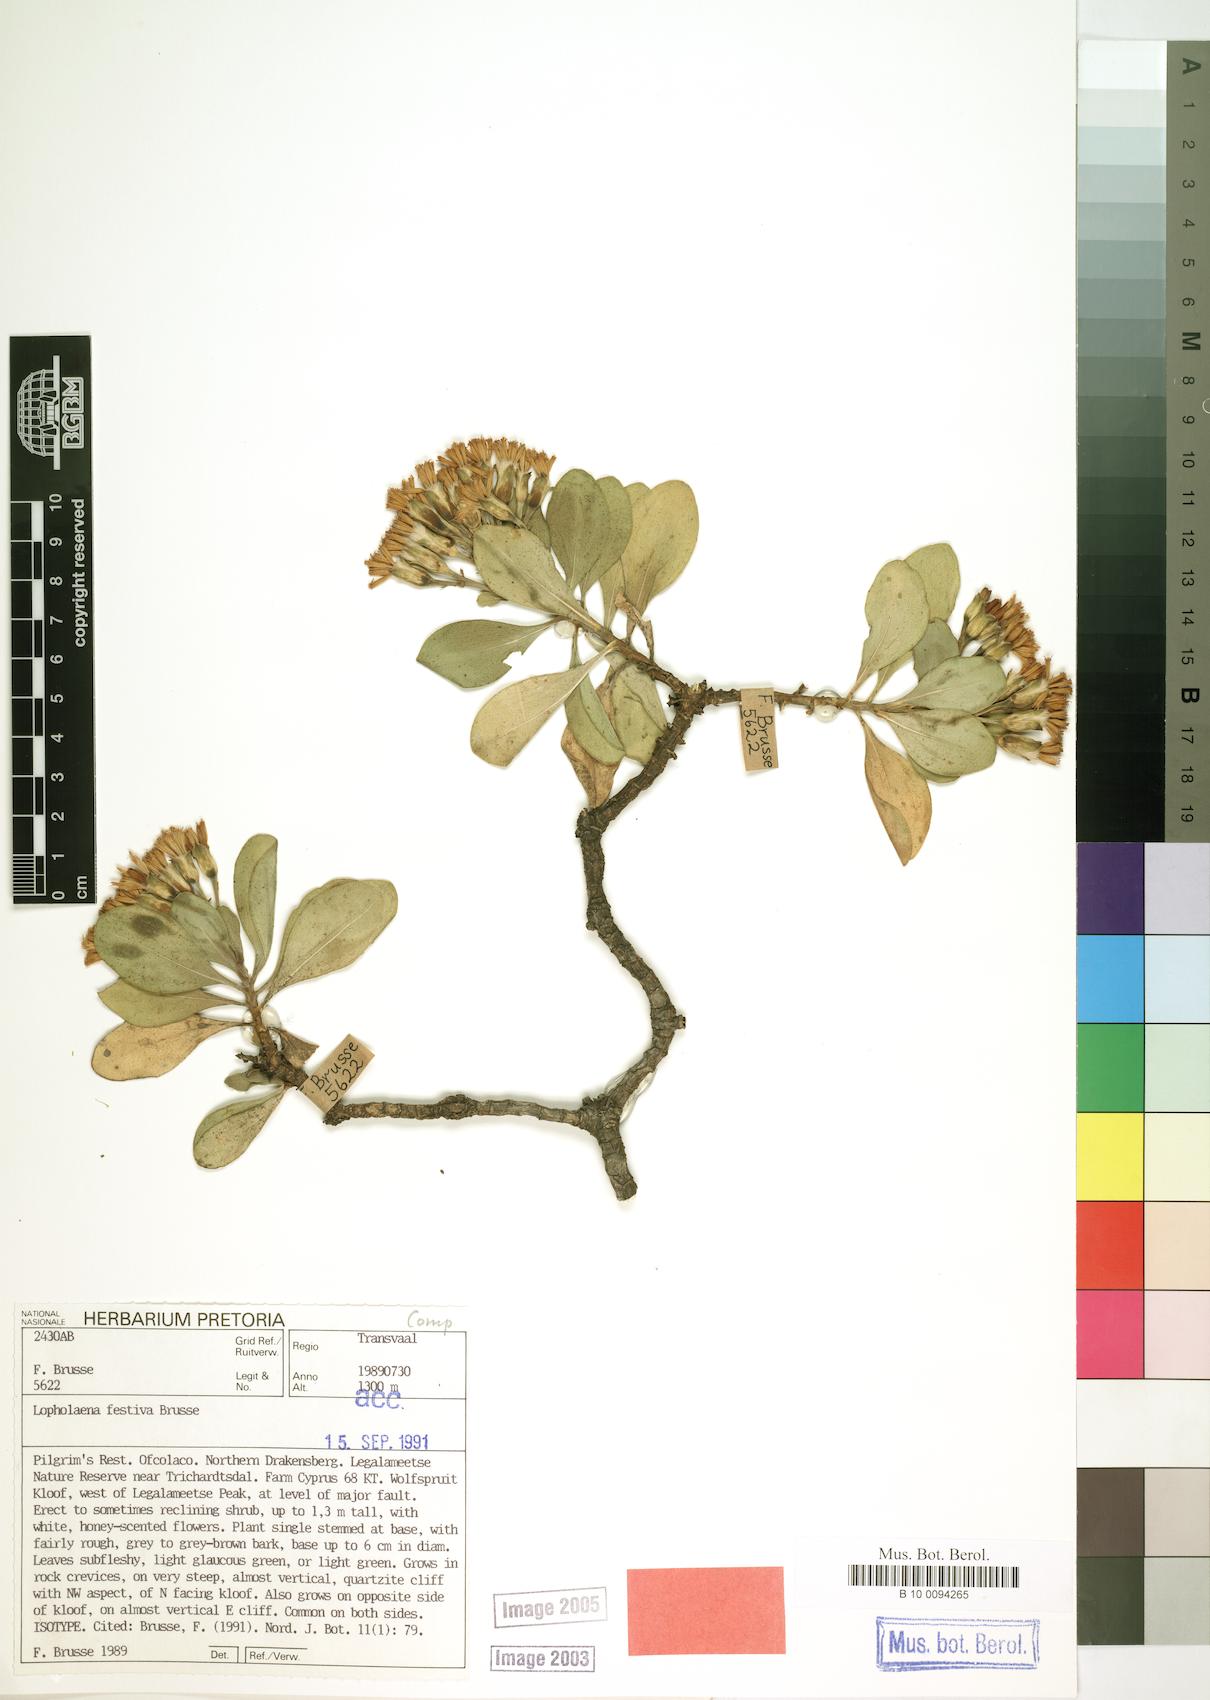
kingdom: Plantae
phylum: Tracheophyta
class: Magnoliopsida
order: Asterales
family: Asteraceae
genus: Lopholaena
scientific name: Lopholaena festiva
